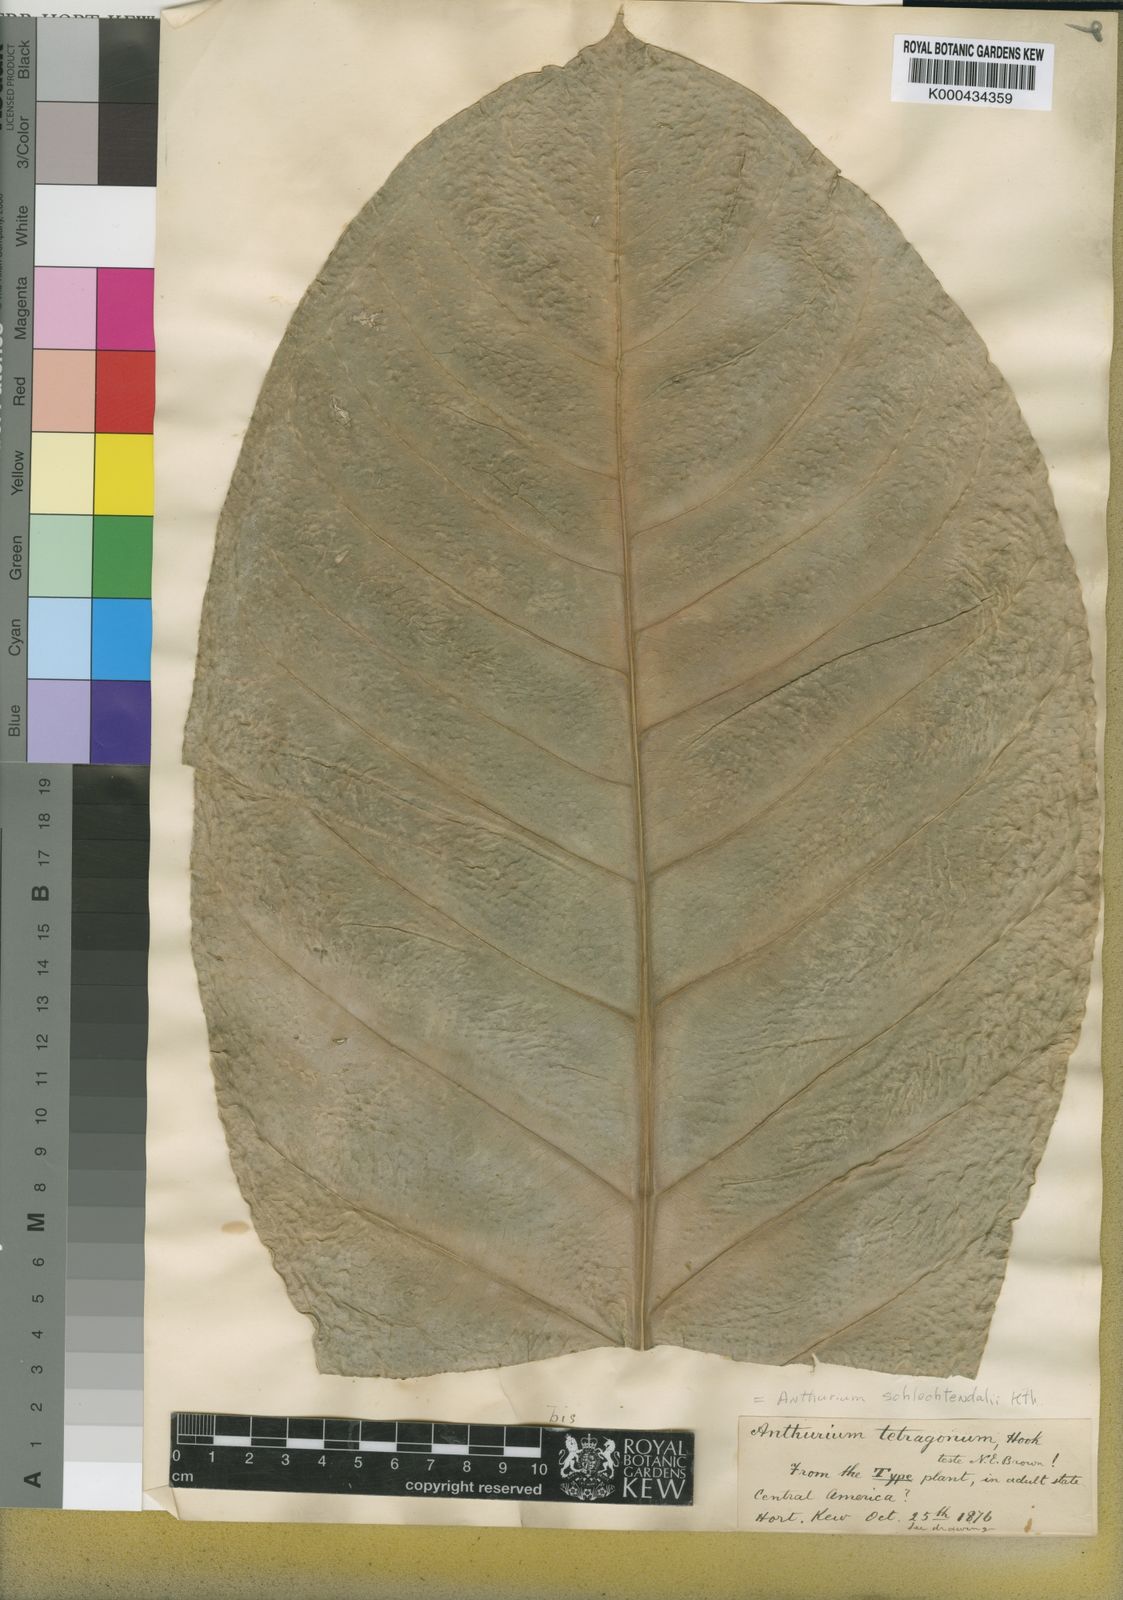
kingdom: Plantae
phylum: Tracheophyta
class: Liliopsida
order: Alismatales
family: Araceae
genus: Anthurium
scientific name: Anthurium schlechtendalii
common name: Laceleaf
